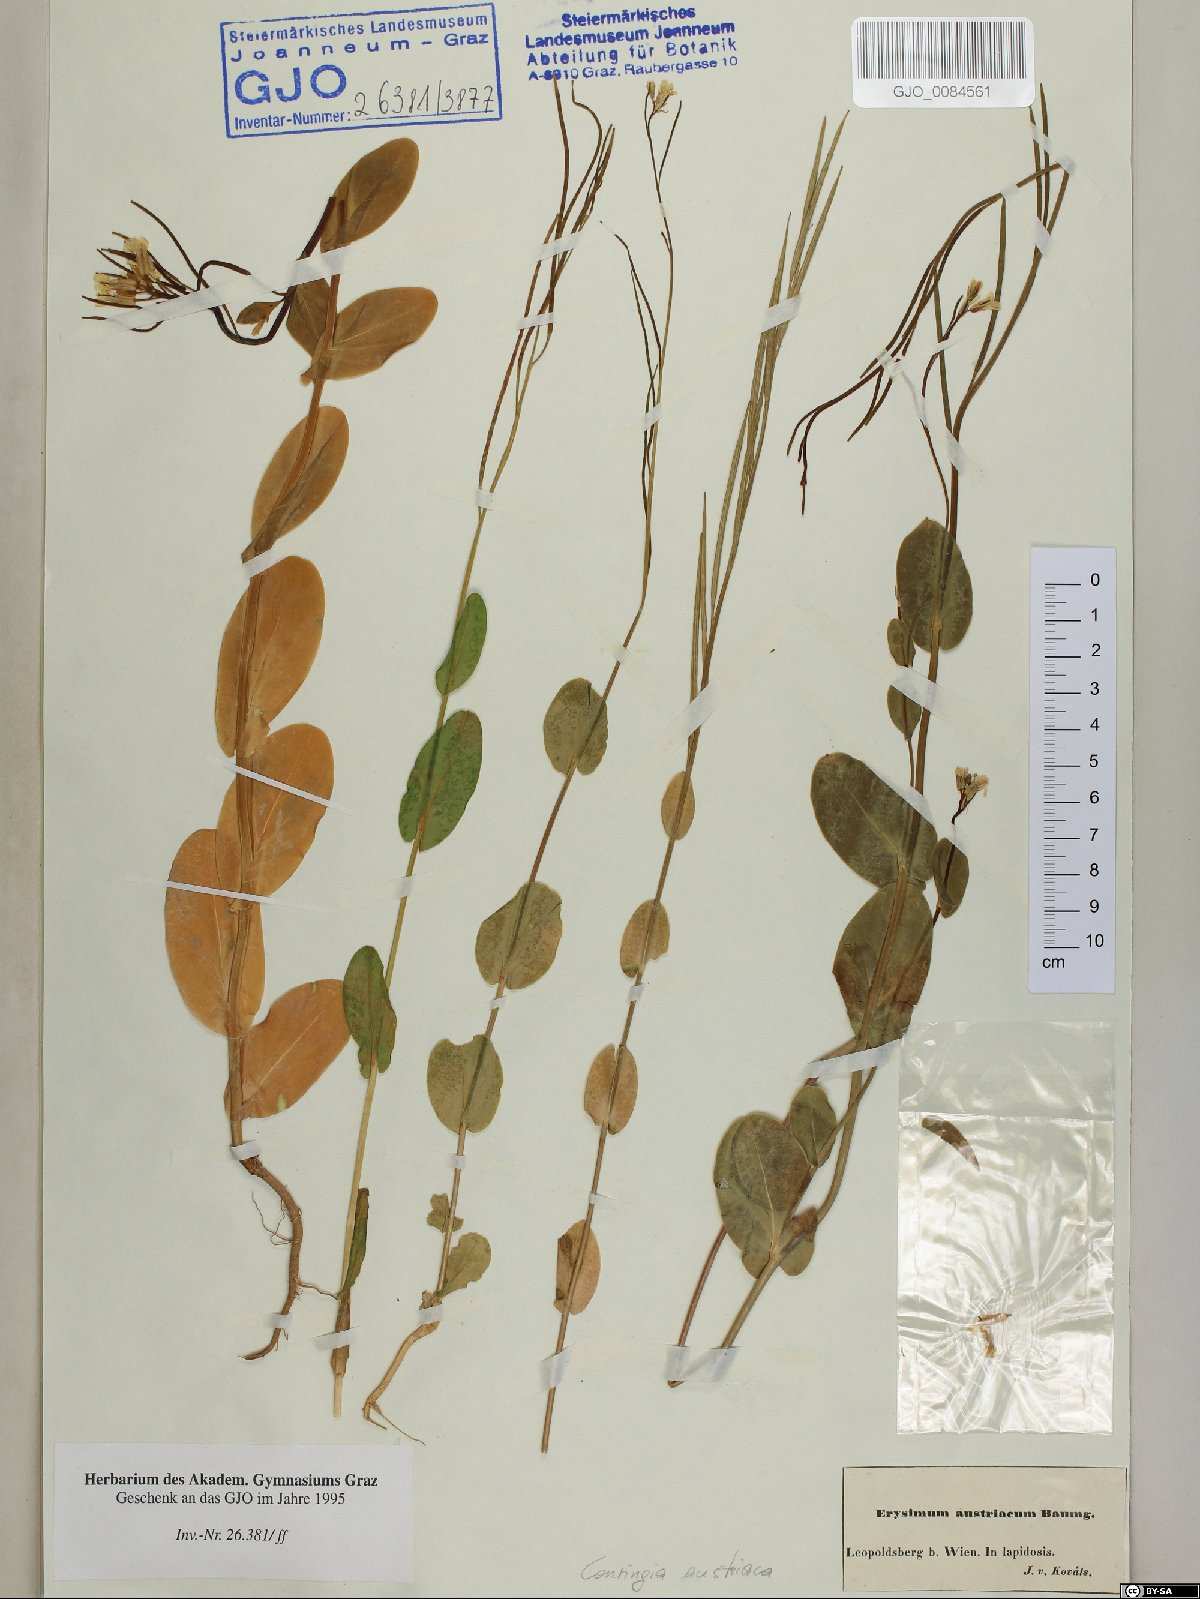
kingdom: Plantae
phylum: Tracheophyta
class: Magnoliopsida
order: Brassicales
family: Brassicaceae
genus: Conringia
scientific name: Conringia austriaca
